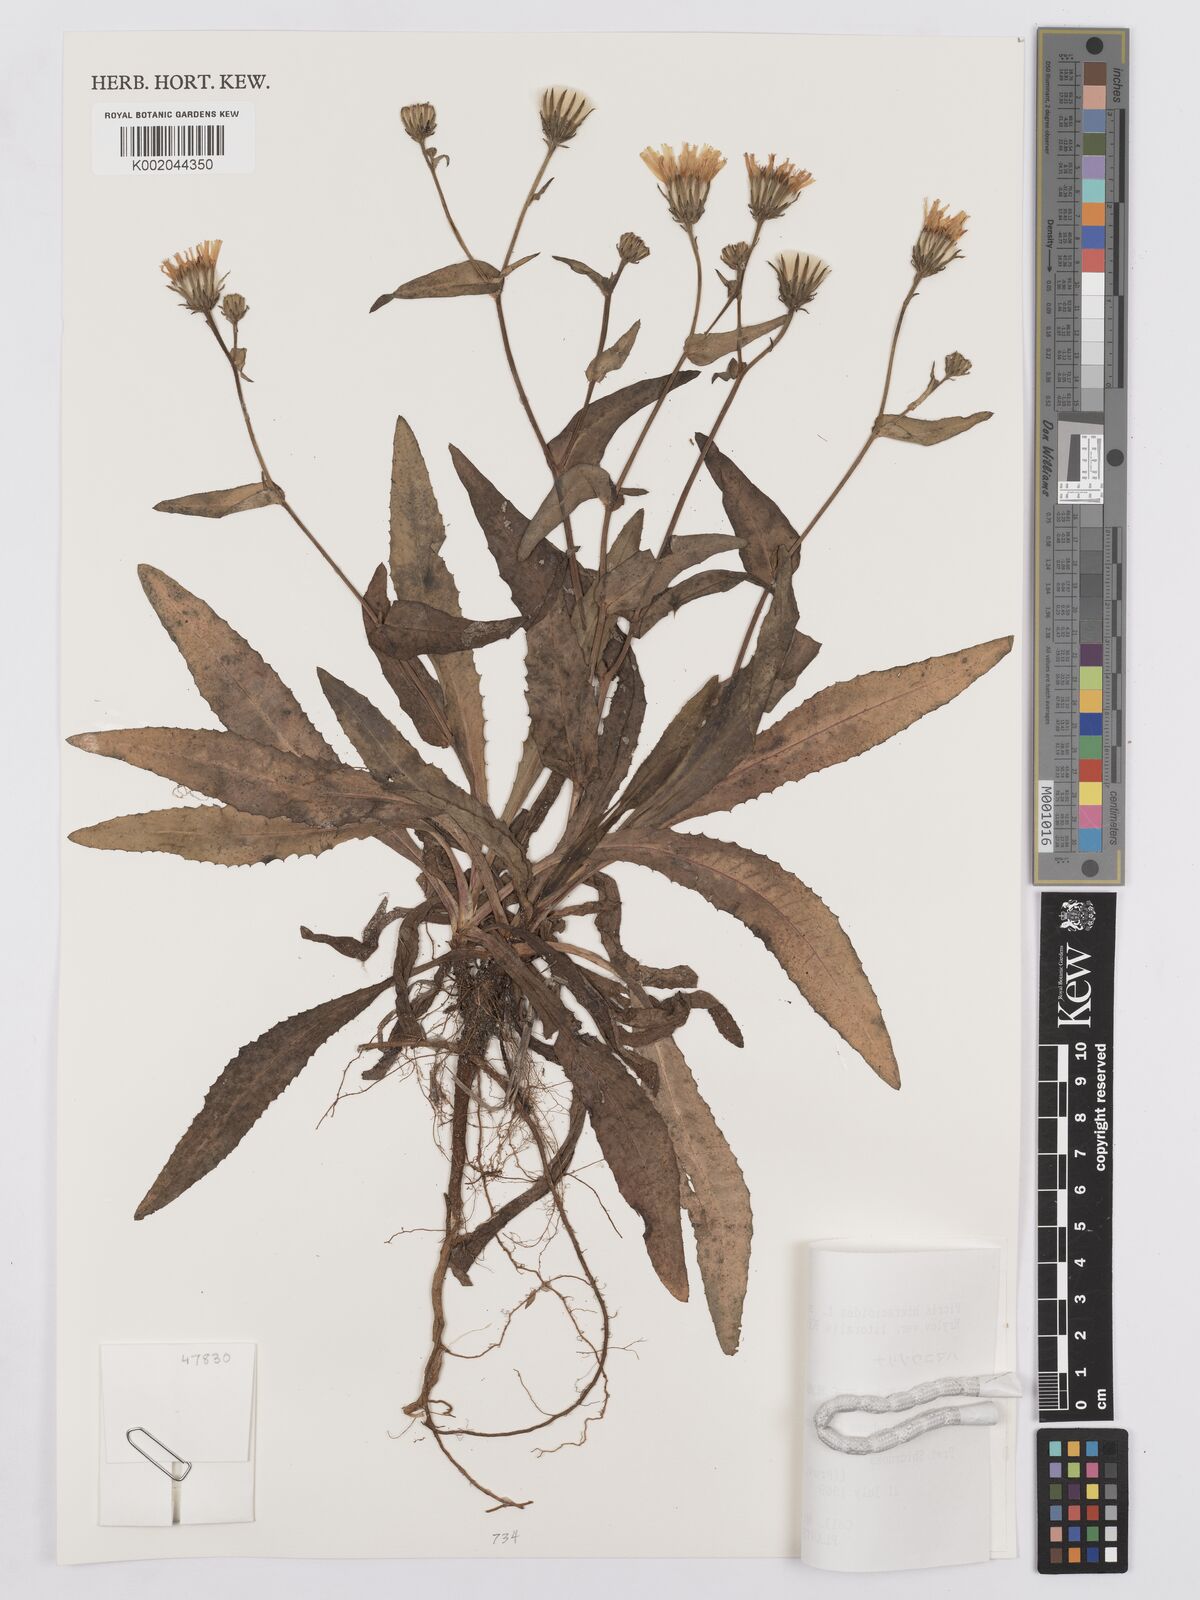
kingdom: Plantae
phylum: Tracheophyta
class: Magnoliopsida
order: Asterales
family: Asteraceae
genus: Picris
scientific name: Picris hieracioides
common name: Hawkweed oxtongue
